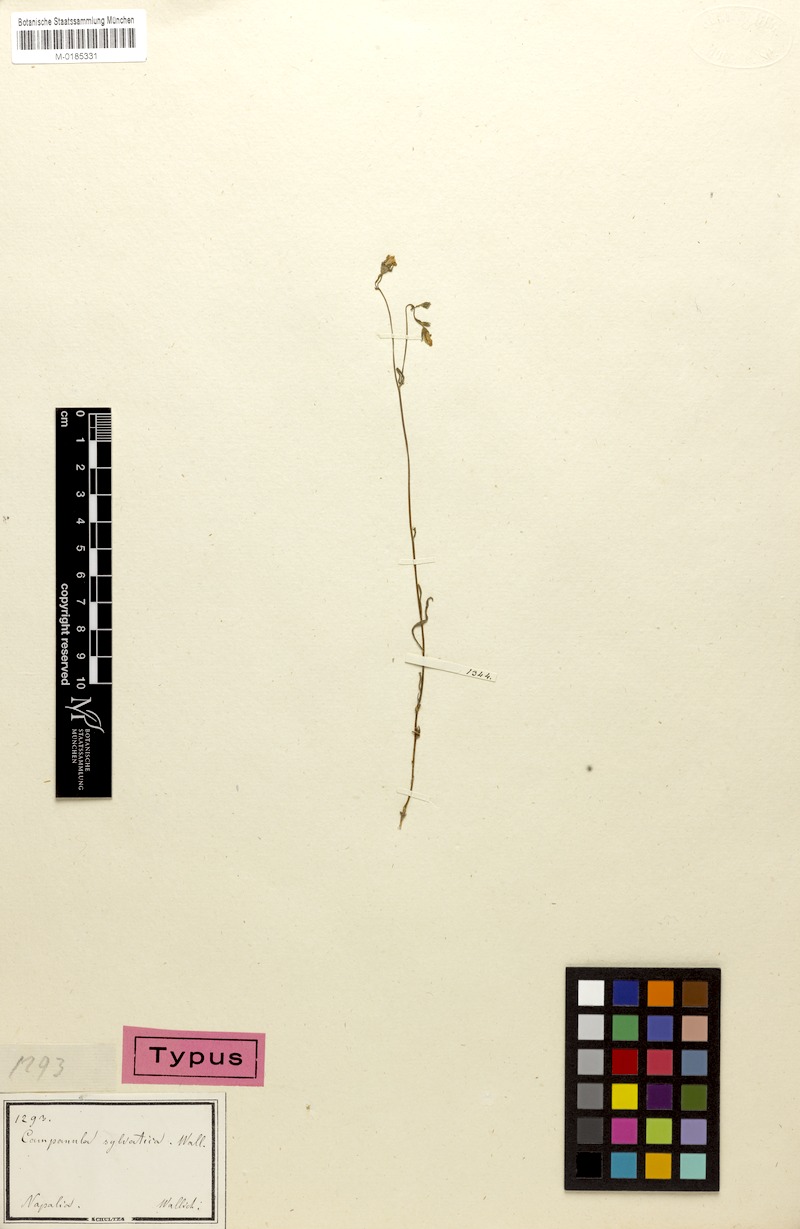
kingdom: Plantae
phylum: Tracheophyta
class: Magnoliopsida
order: Asterales
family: Campanulaceae
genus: Campanula
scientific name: Campanula sylvatica
